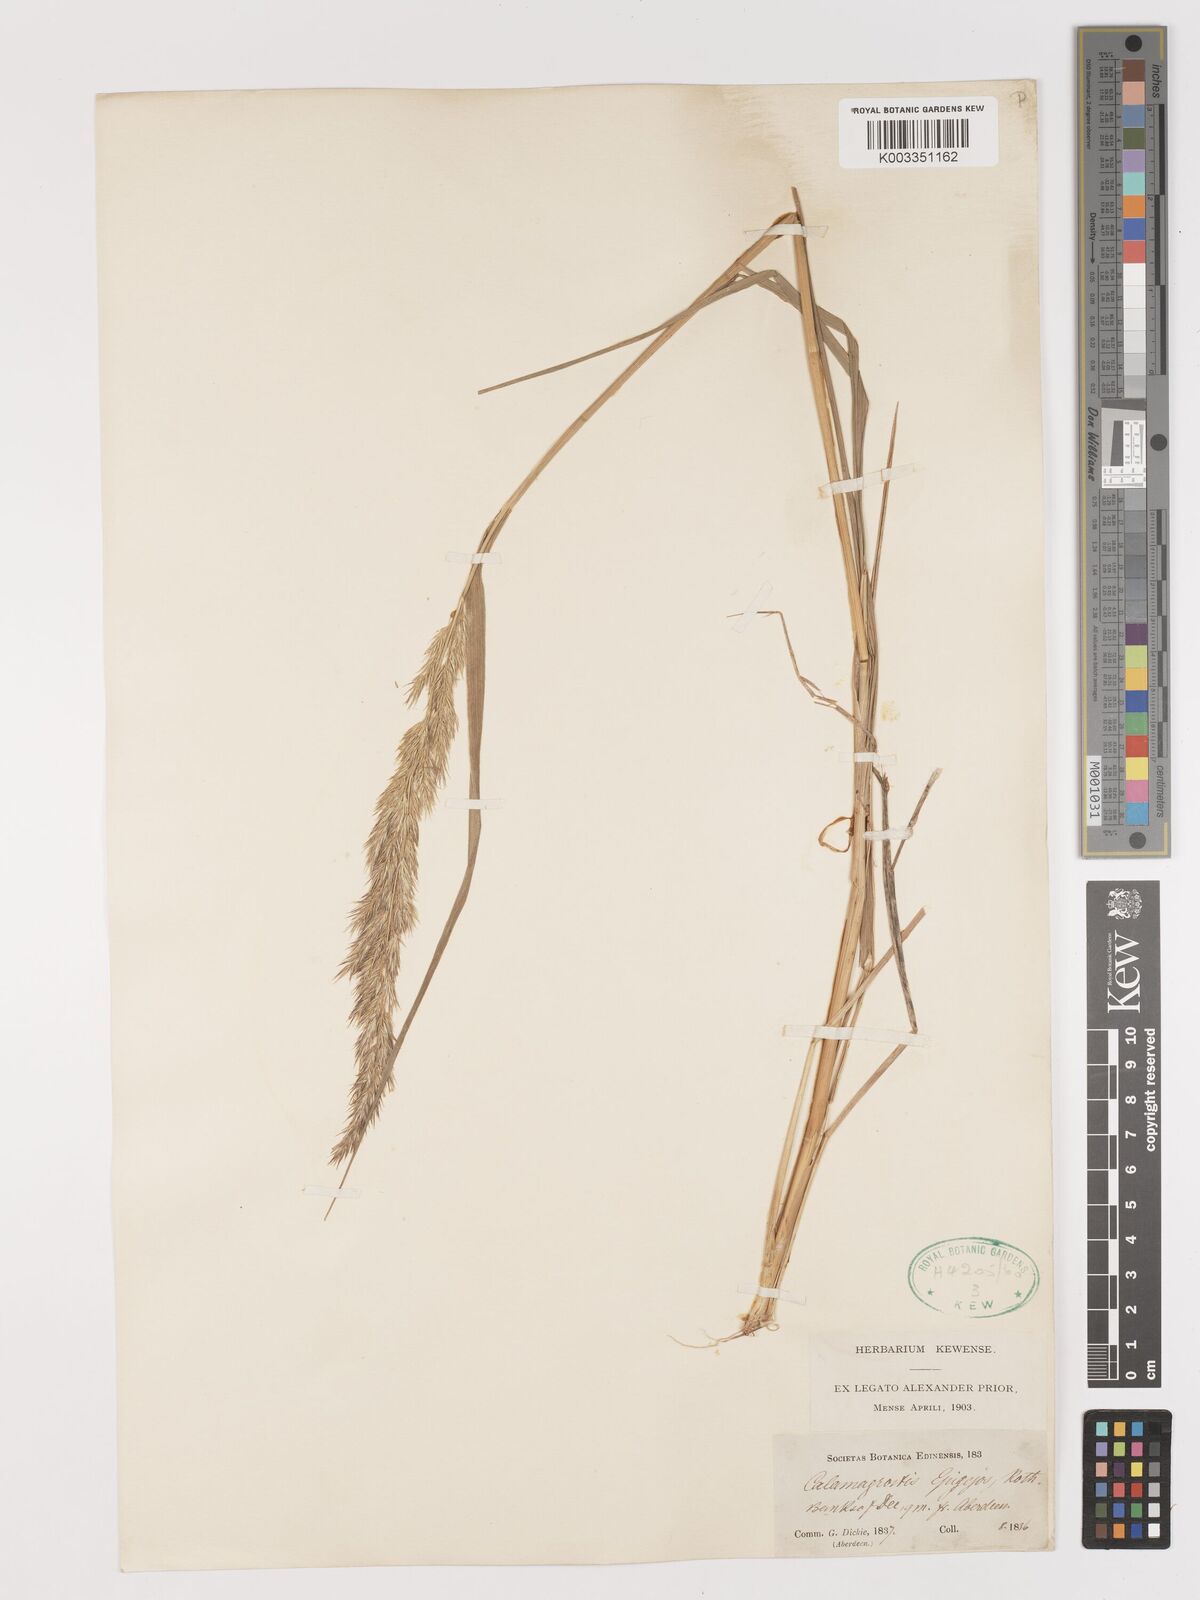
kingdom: Plantae
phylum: Tracheophyta
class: Liliopsida
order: Poales
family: Poaceae
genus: Calamagrostis
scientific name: Calamagrostis
